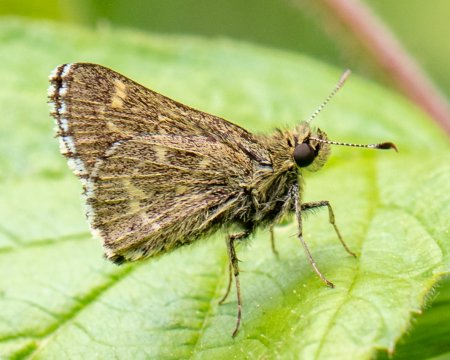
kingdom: Animalia
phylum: Arthropoda
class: Insecta
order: Lepidoptera
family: Hesperiidae
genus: Mastor
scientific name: Mastor hegon
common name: Pepper and Salt Skipper
